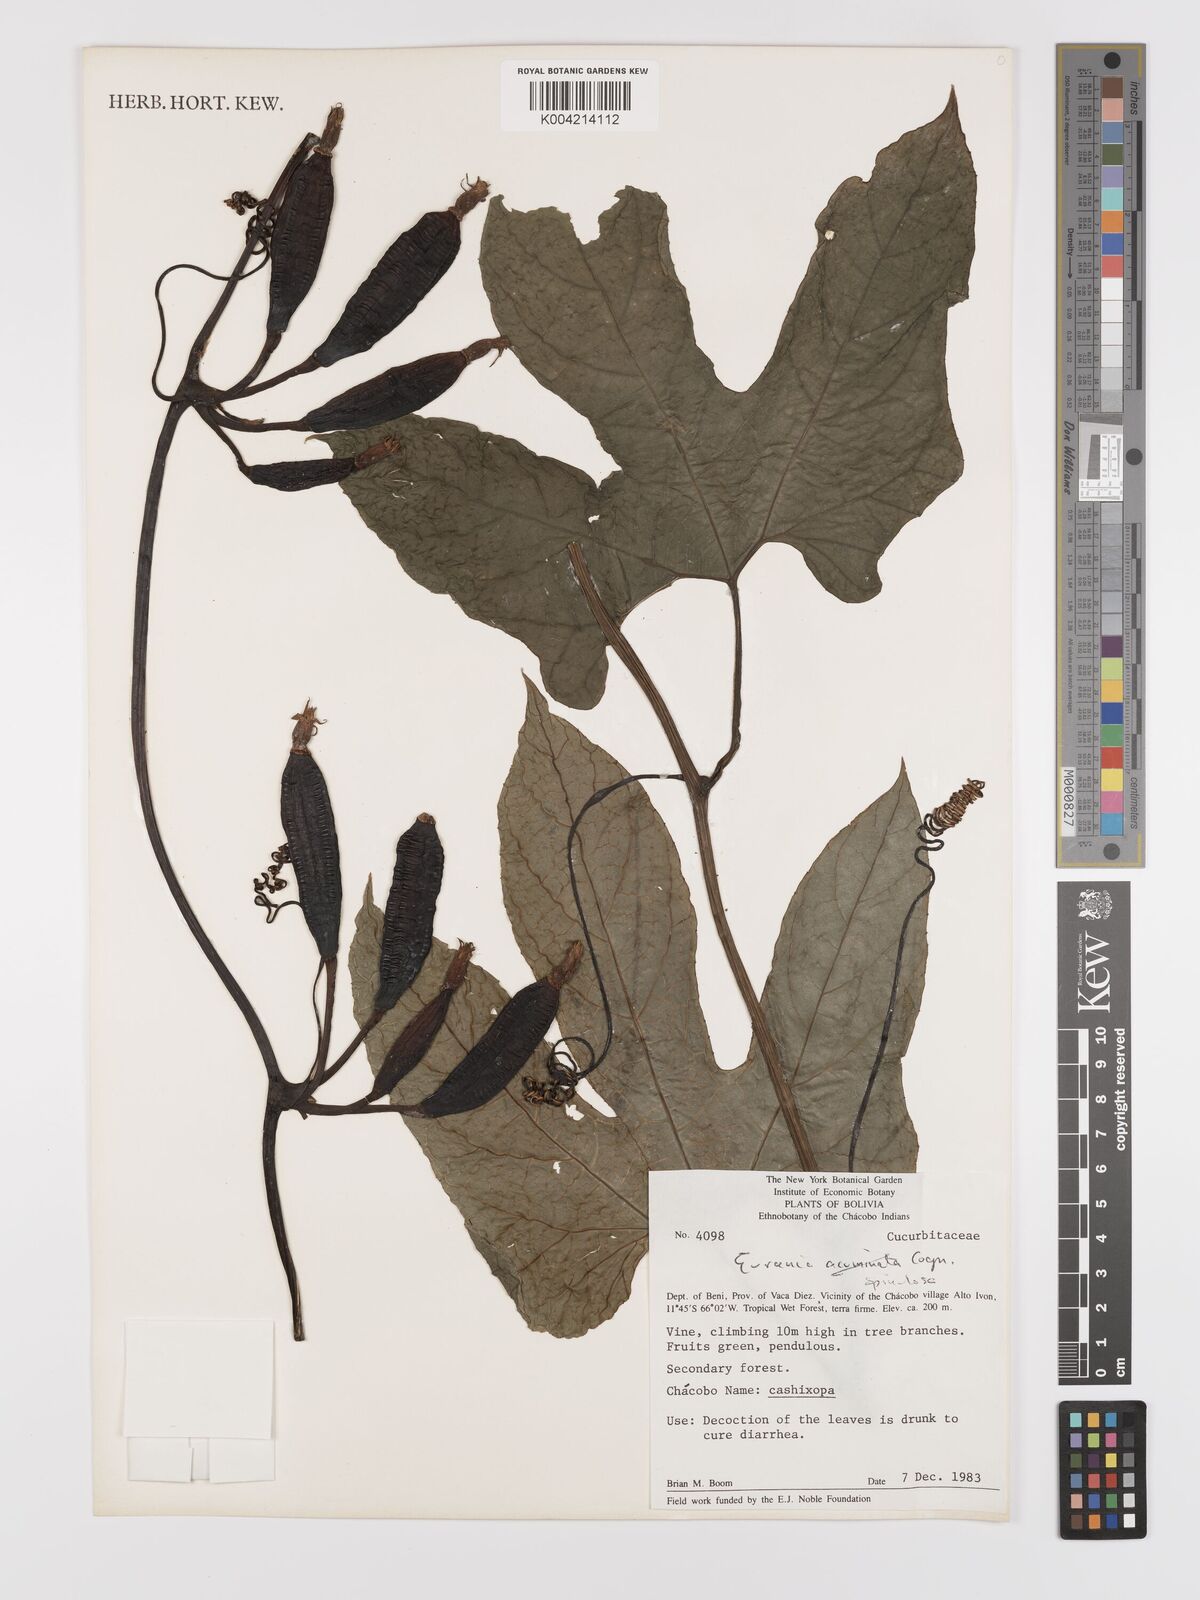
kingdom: Plantae
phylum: Tracheophyta
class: Magnoliopsida
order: Cucurbitales
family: Cucurbitaceae
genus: Gurania
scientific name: Gurania lobata
